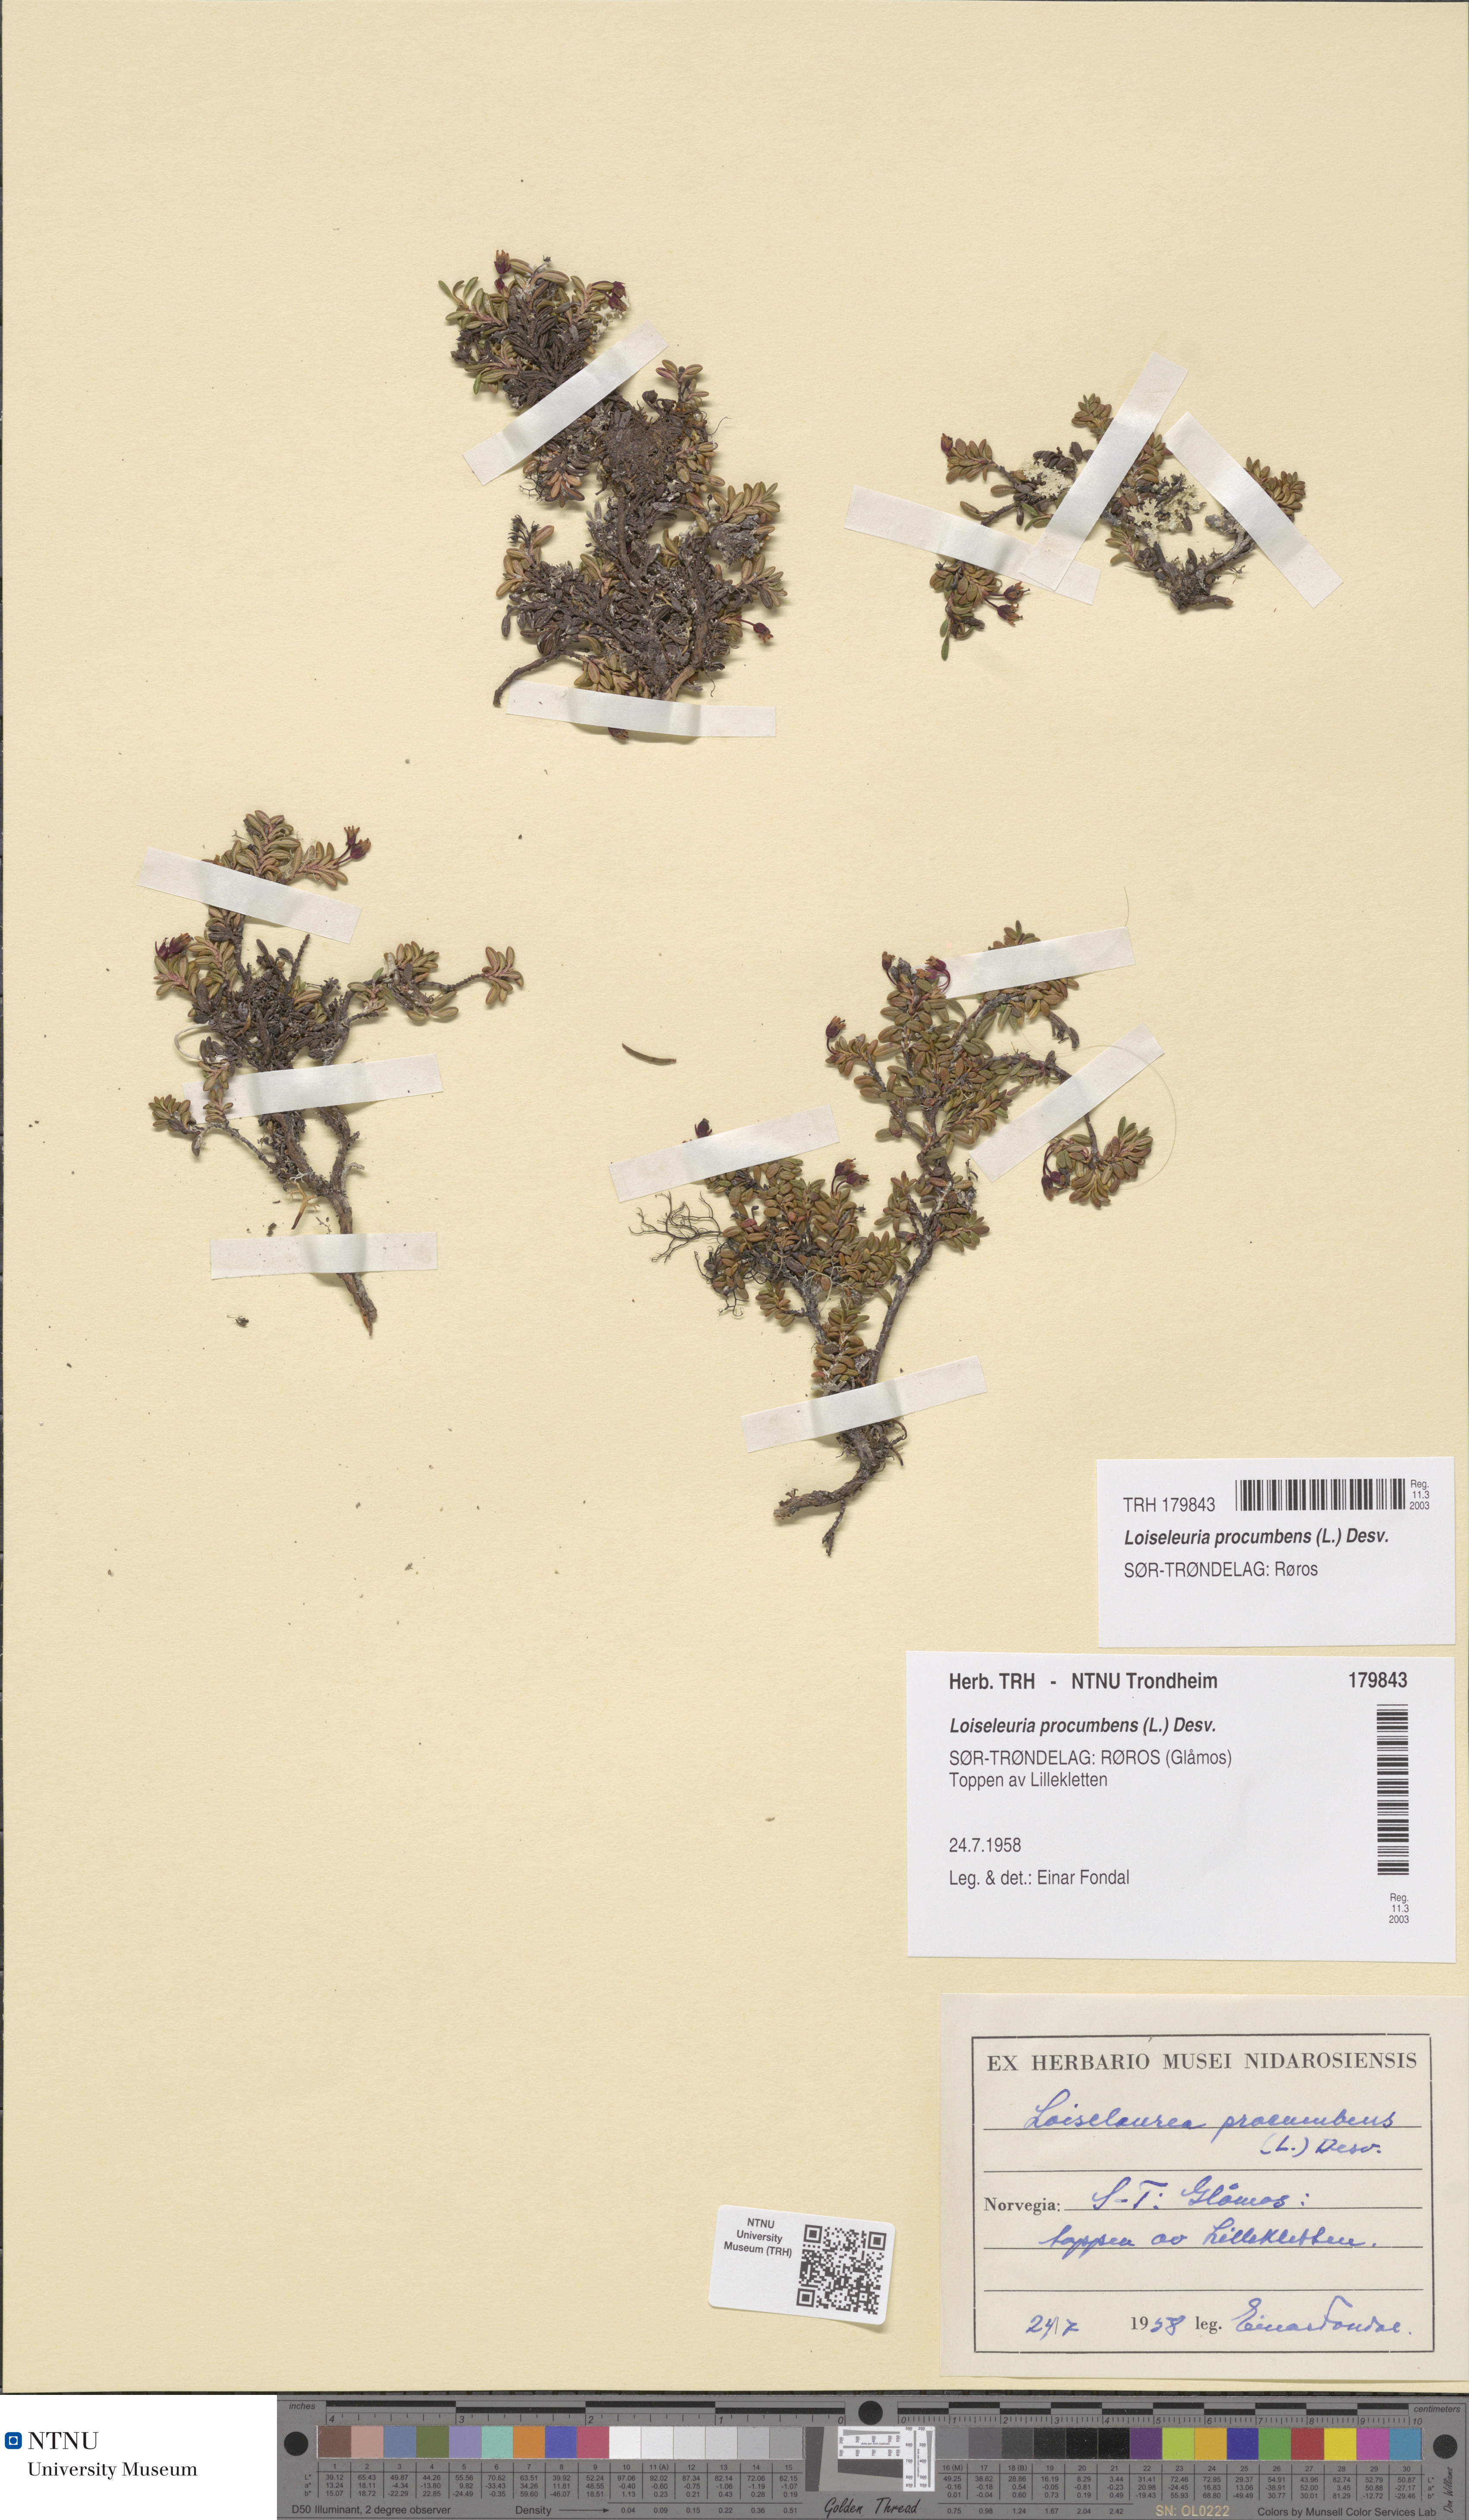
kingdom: Plantae
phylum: Tracheophyta
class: Magnoliopsida
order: Ericales
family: Ericaceae
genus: Kalmia
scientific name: Kalmia procumbens
